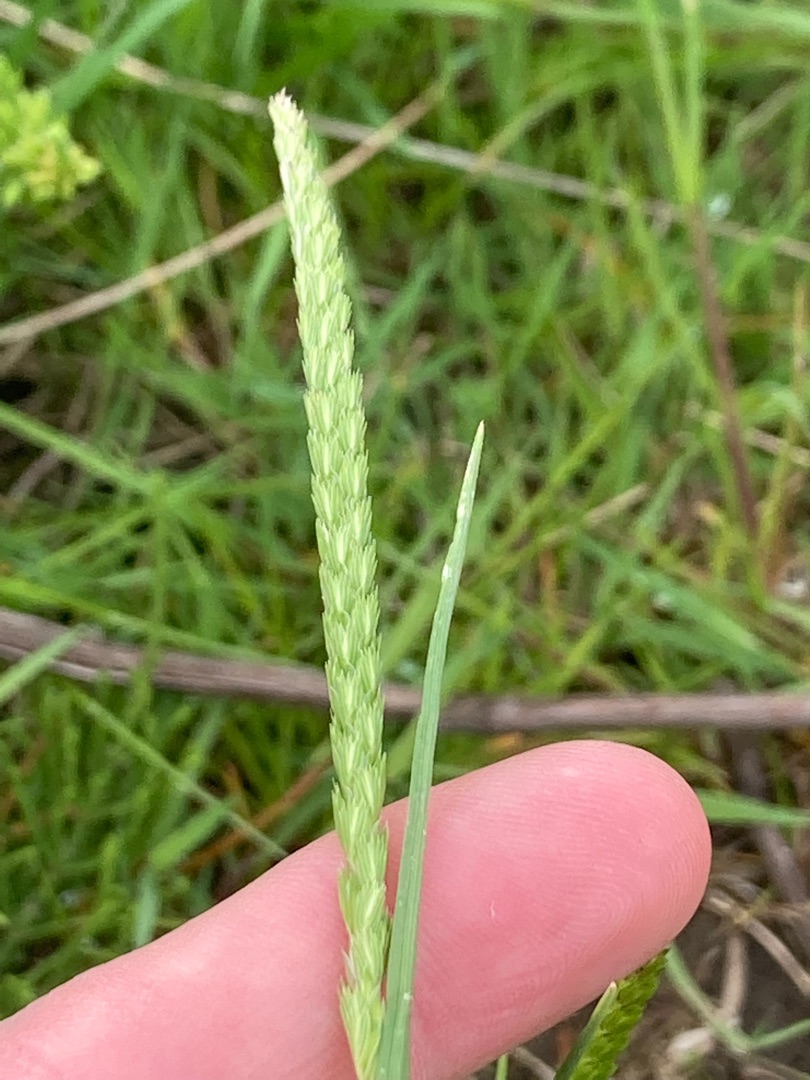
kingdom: Plantae
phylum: Tracheophyta
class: Liliopsida
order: Poales
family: Poaceae
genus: Cynosurus
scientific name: Cynosurus cristatus
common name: Kamgræs
